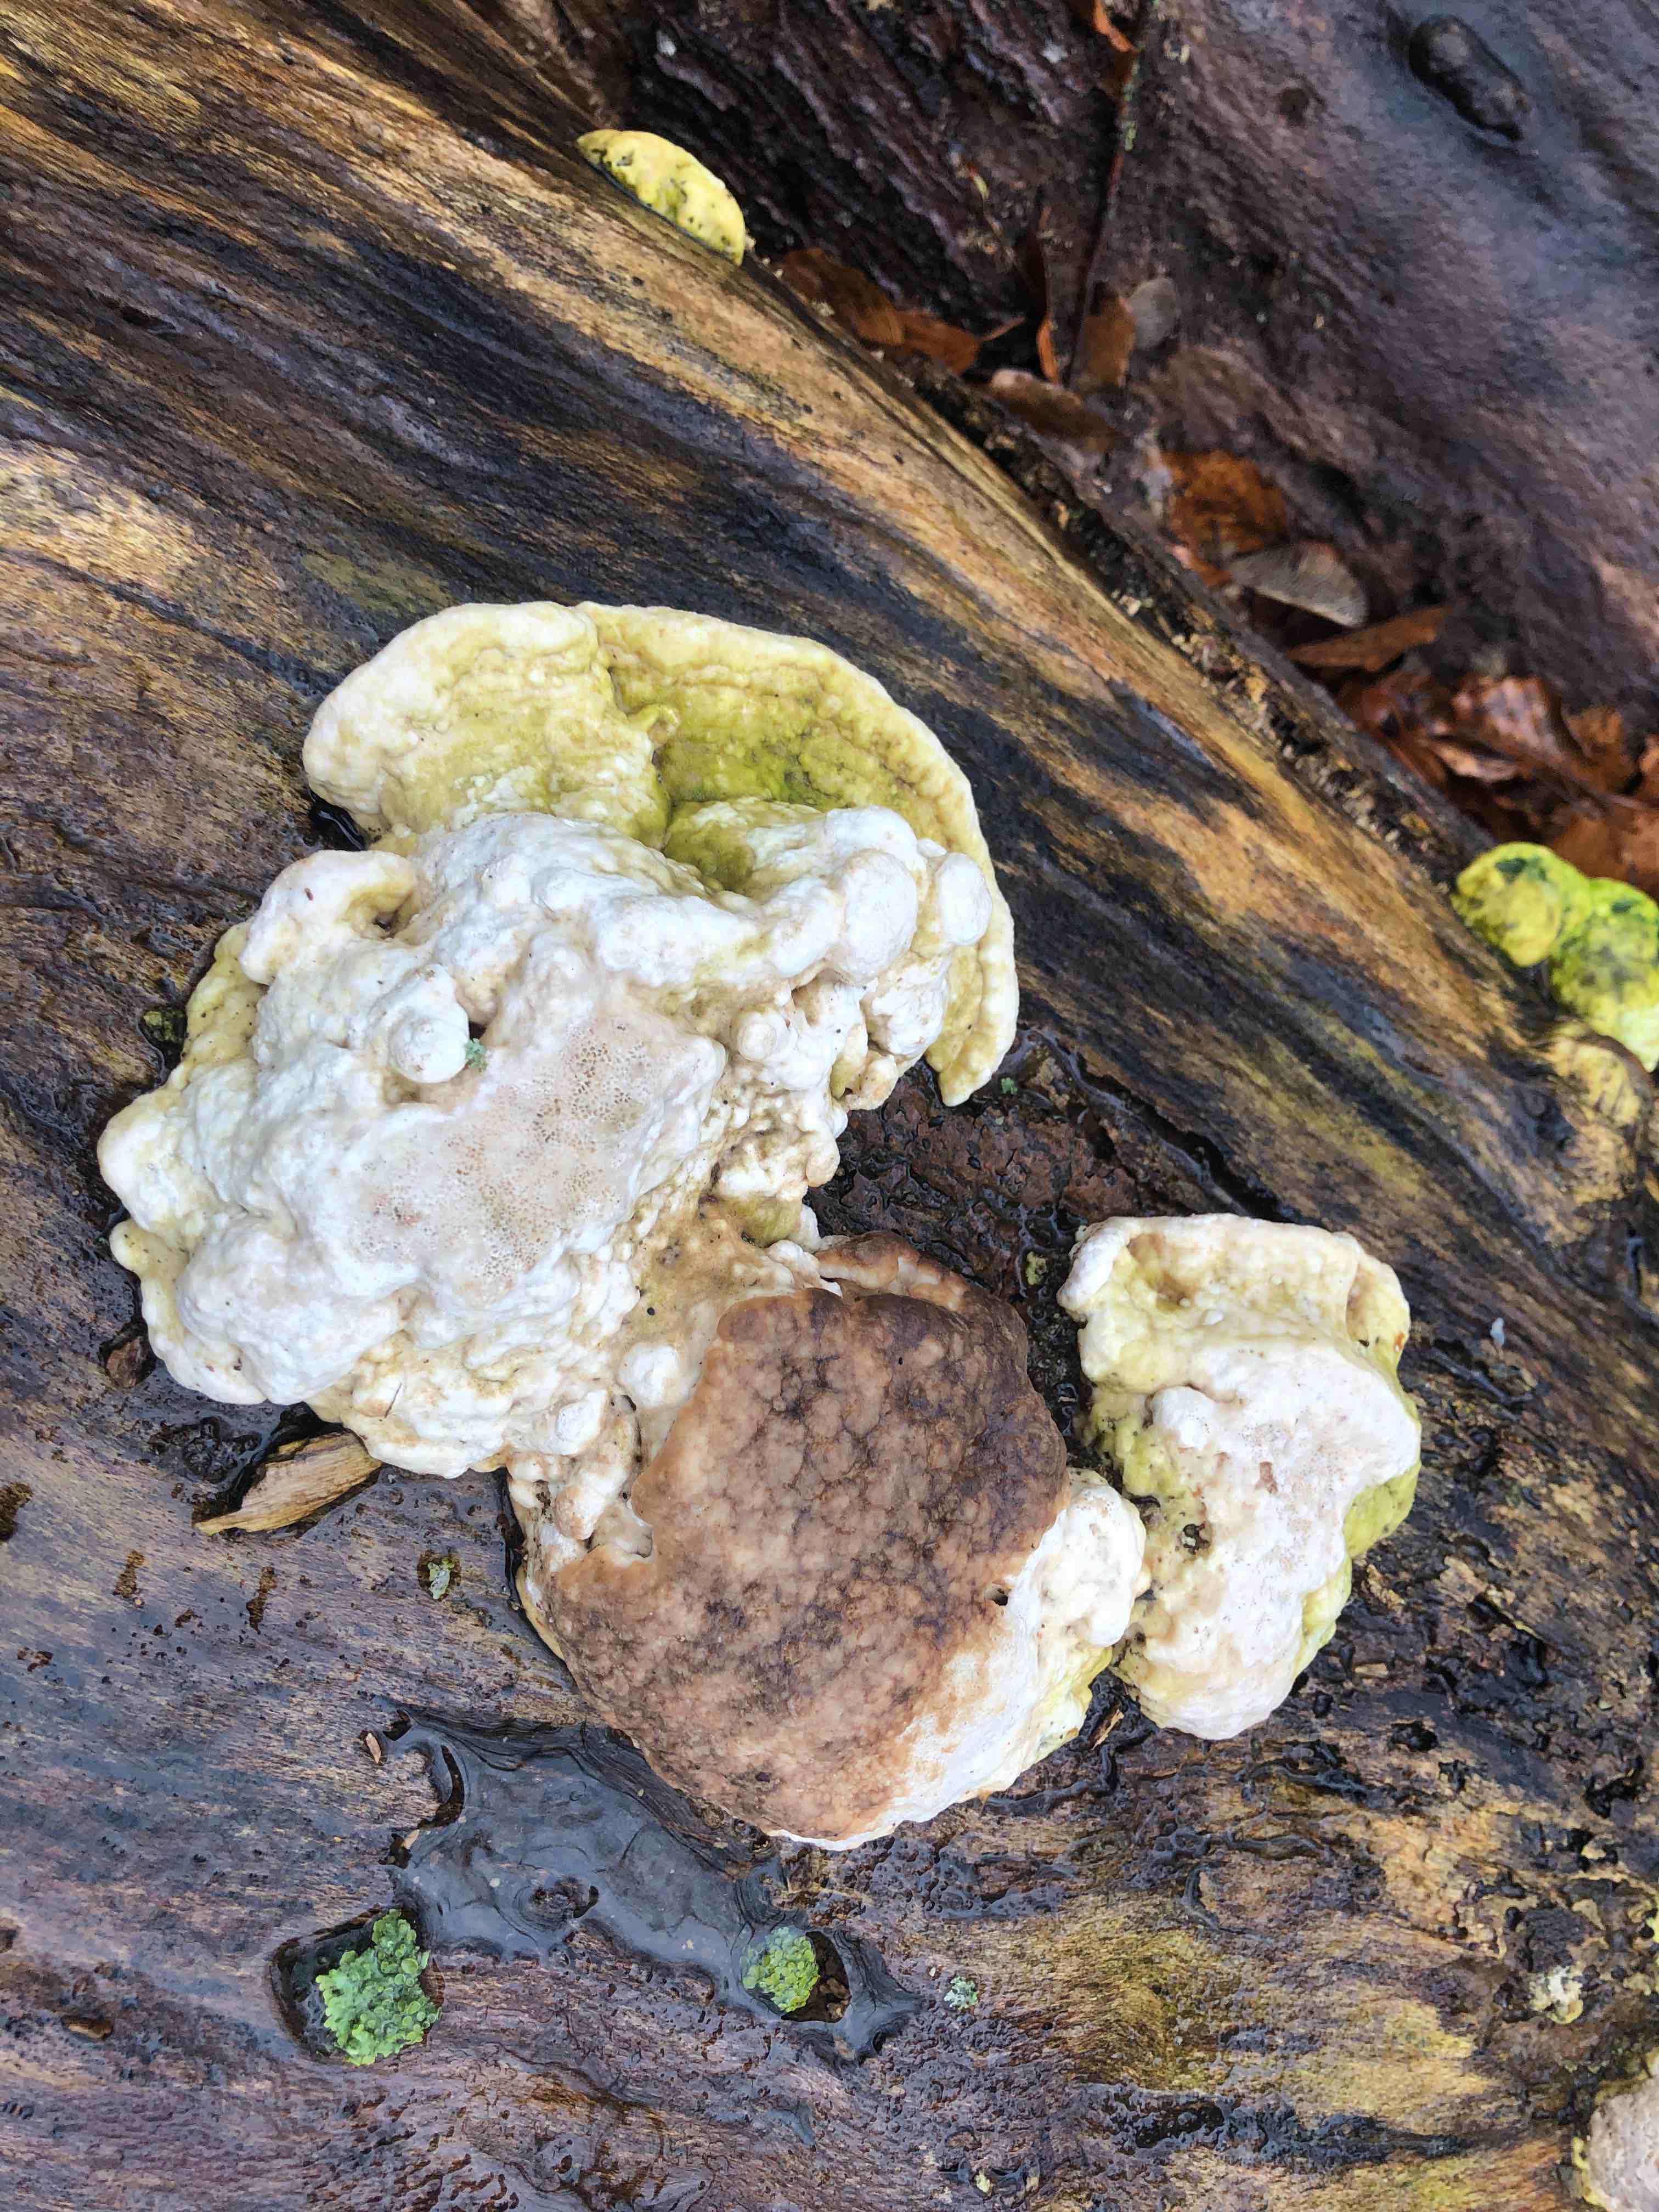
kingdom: Fungi
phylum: Basidiomycota
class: Agaricomycetes
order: Polyporales
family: Polyporaceae
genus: Trametes
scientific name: Trametes gibbosa
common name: puklet læderporesvamp
